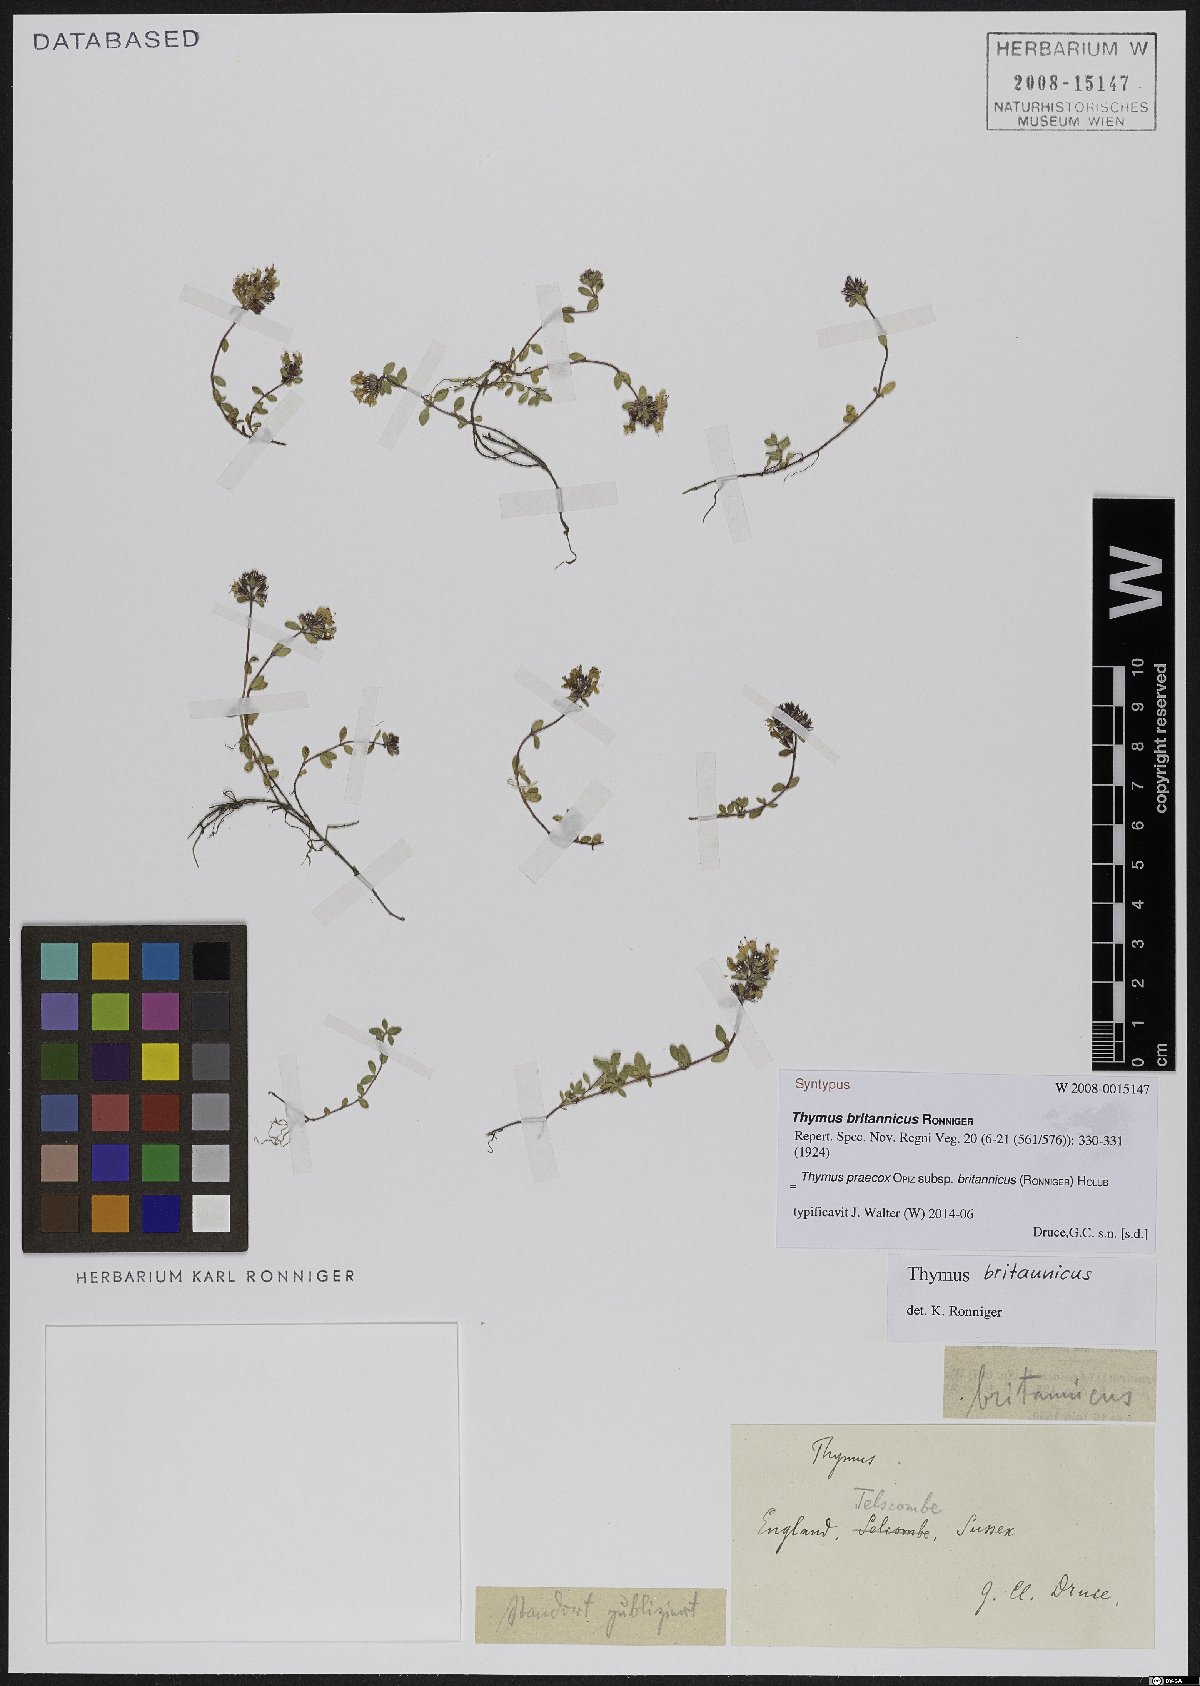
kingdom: Plantae
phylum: Tracheophyta
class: Magnoliopsida
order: Lamiales
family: Lamiaceae
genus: Thymus
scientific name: Thymus praecox
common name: Wild thyme
